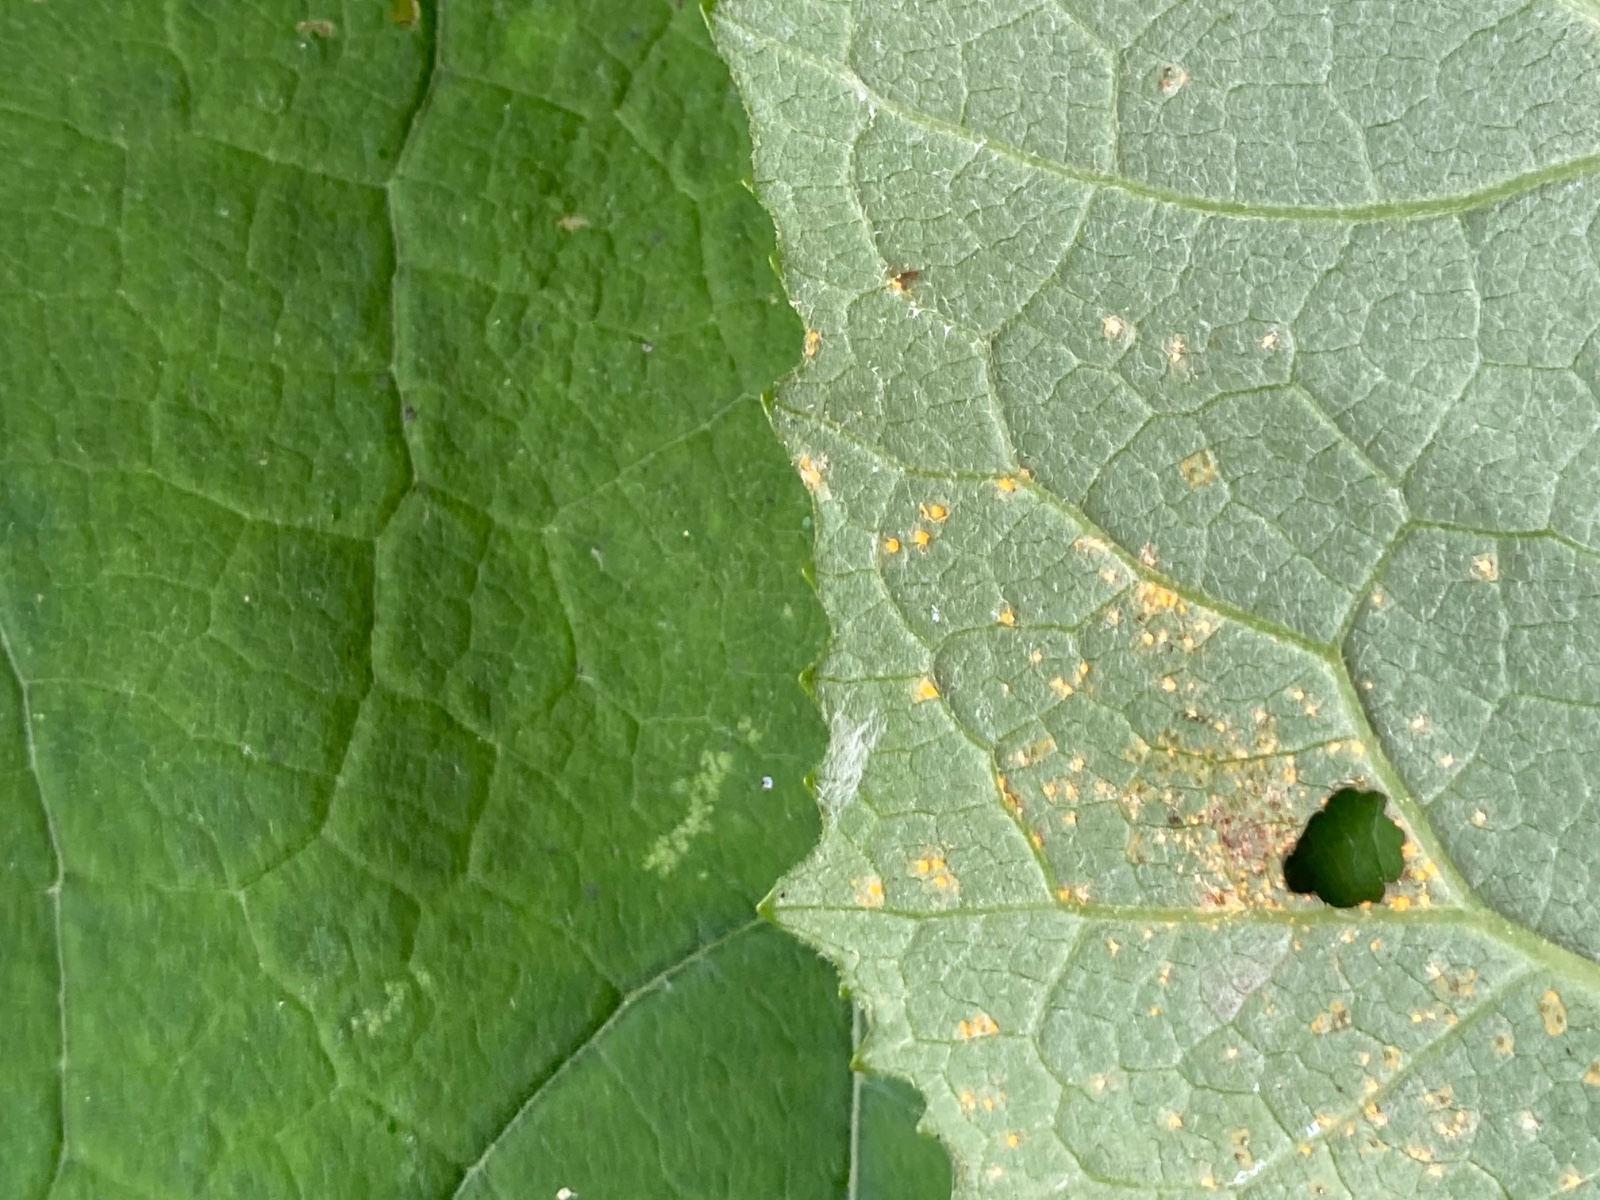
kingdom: Fungi
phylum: Basidiomycota
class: Pucciniomycetes
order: Pucciniales
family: Coleosporiaceae
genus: Coleosporium
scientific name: Coleosporium tussilaginis
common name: almindelig fyrrenålerust
